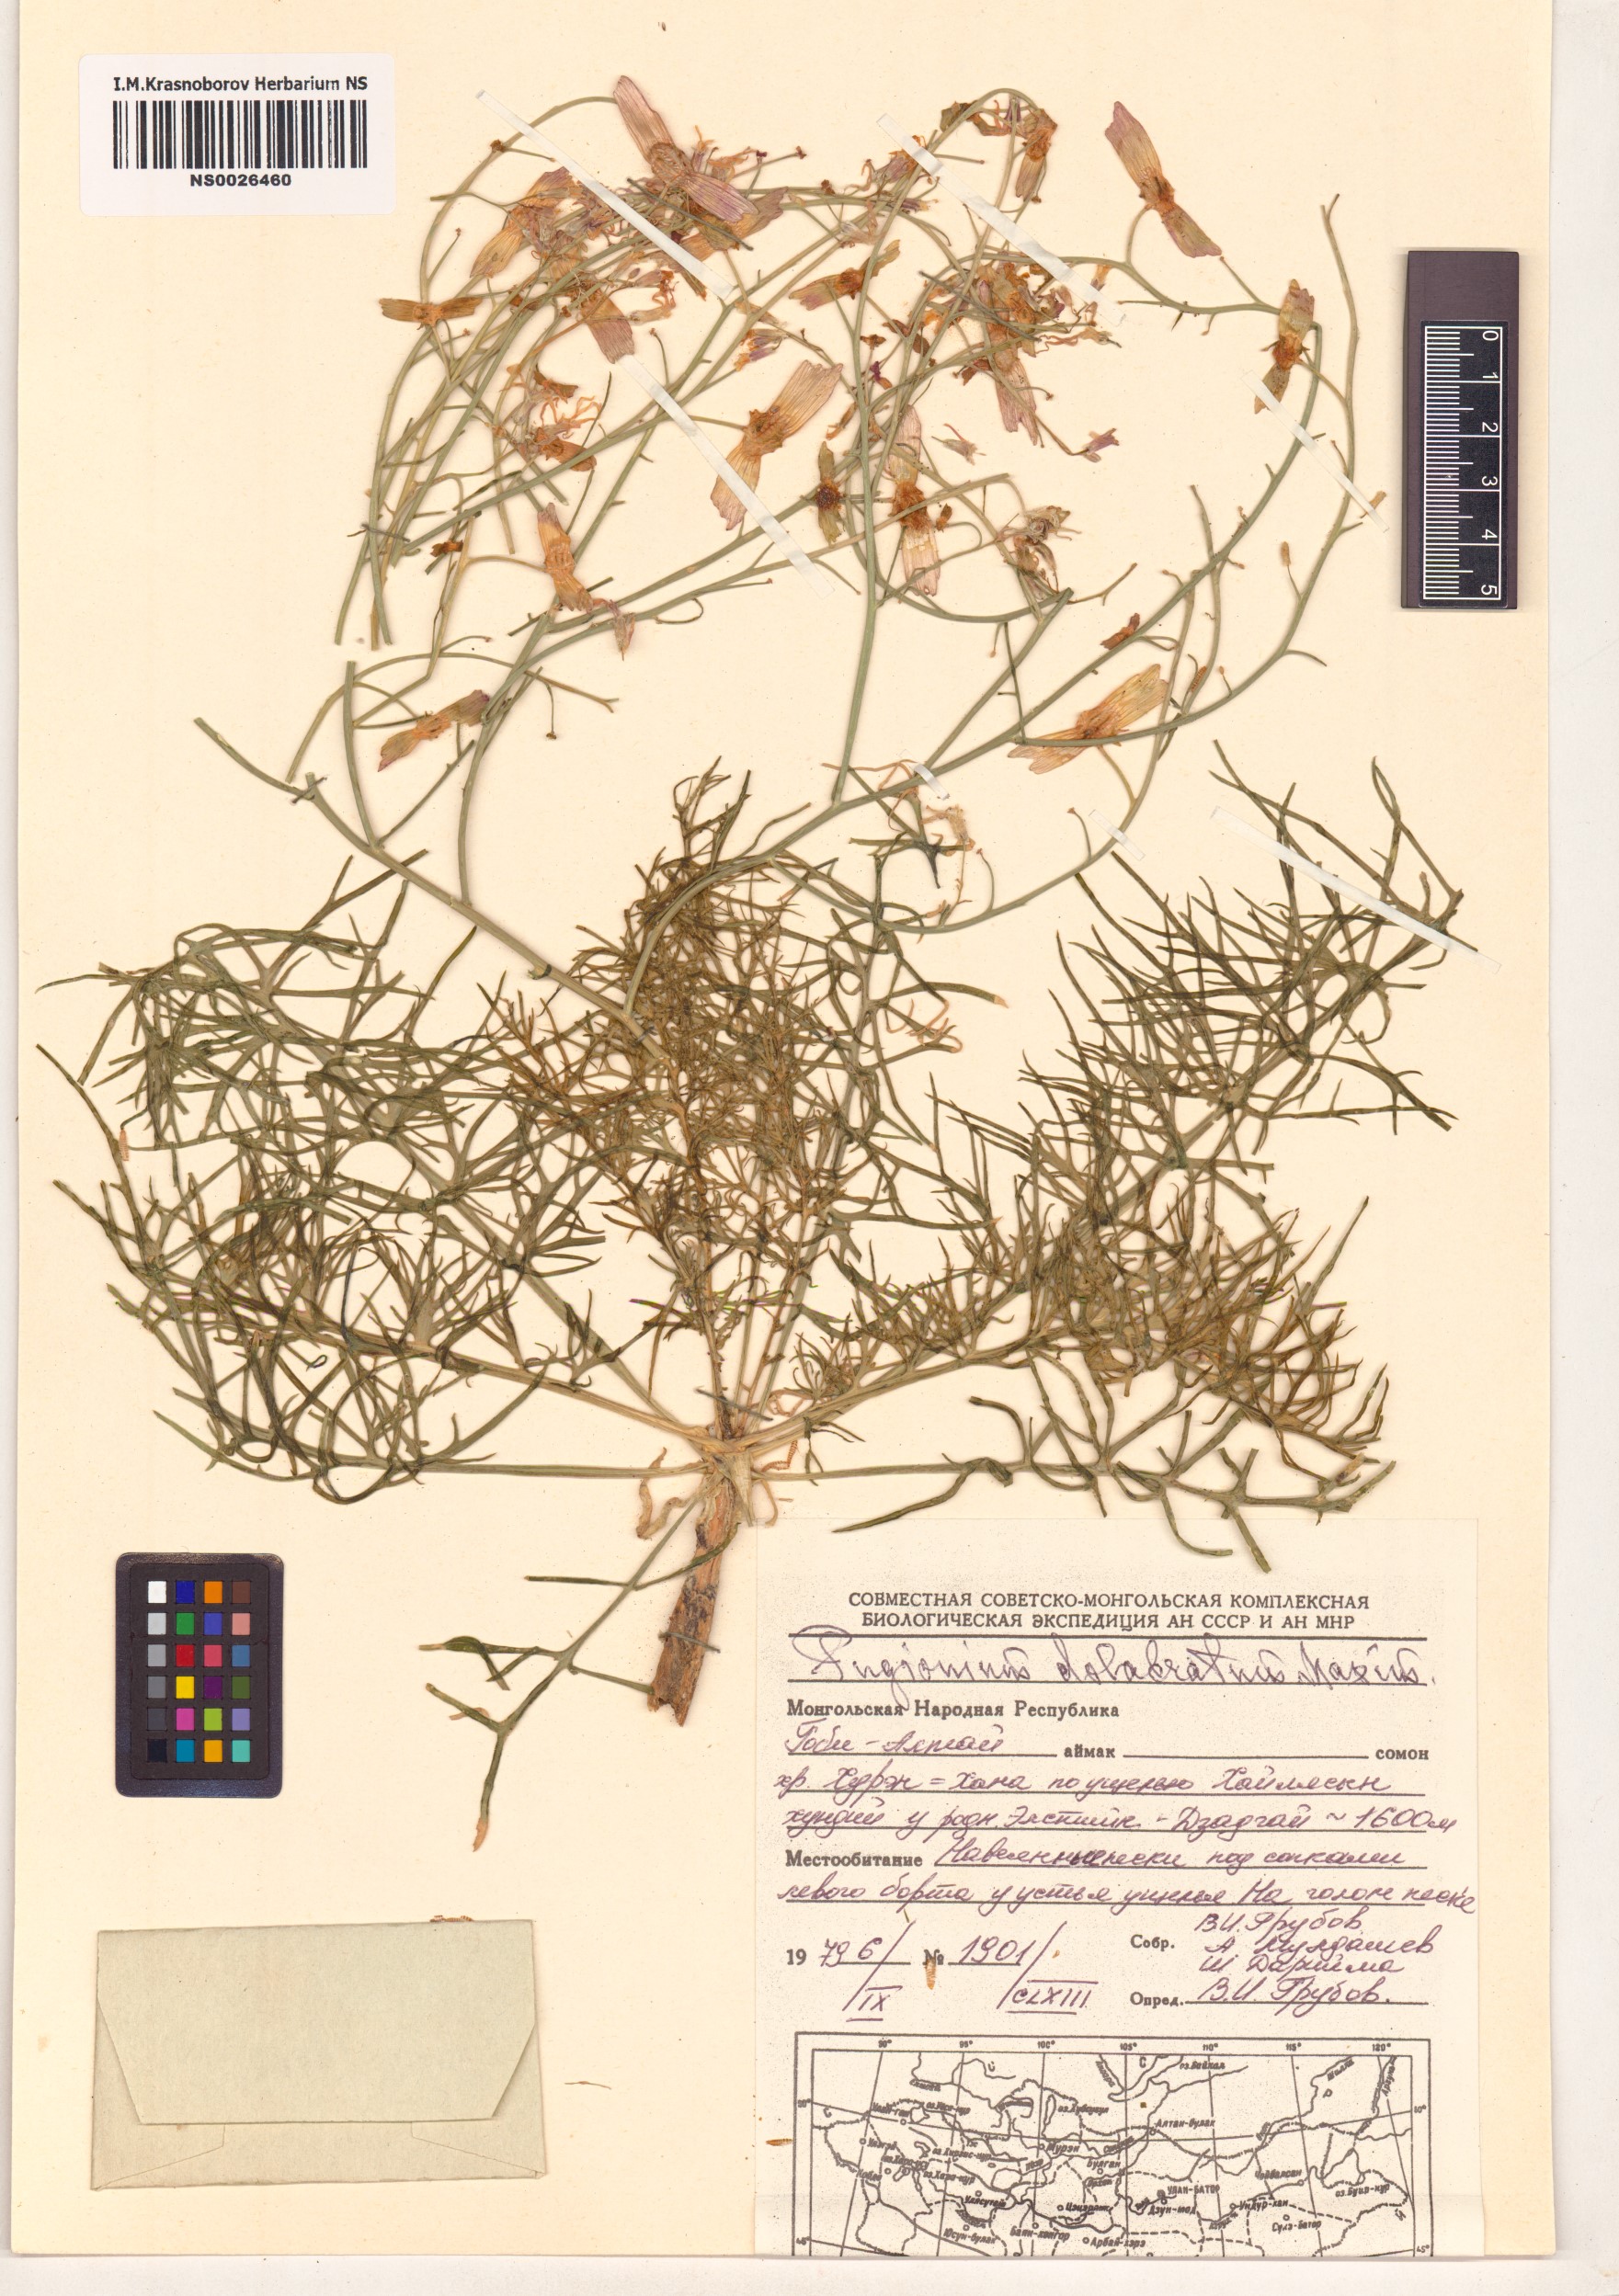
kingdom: Plantae
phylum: Tracheophyta
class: Magnoliopsida
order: Brassicales
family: Brassicaceae
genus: Pugionium
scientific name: Pugionium dolabratum
